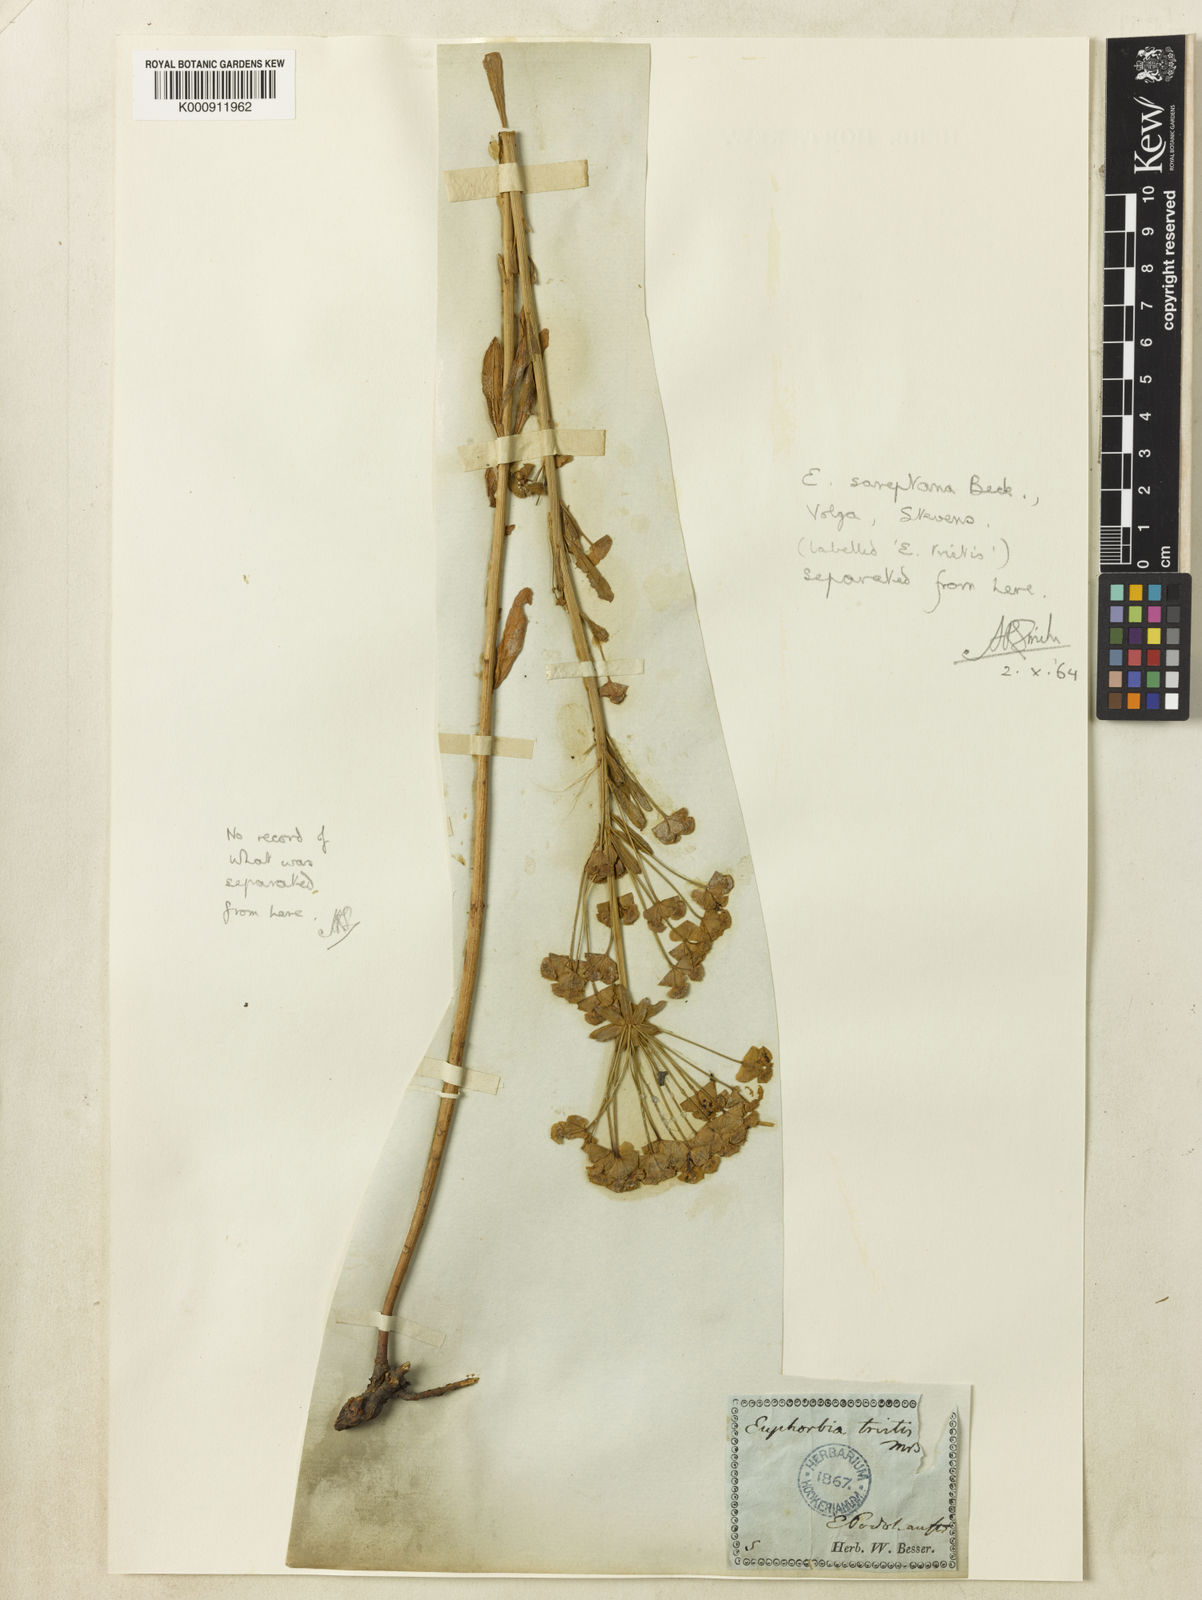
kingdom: Plantae
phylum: Tracheophyta
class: Magnoliopsida
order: Malpighiales
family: Euphorbiaceae
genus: Euphorbia
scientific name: Euphorbia esula
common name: Leafy spurge
